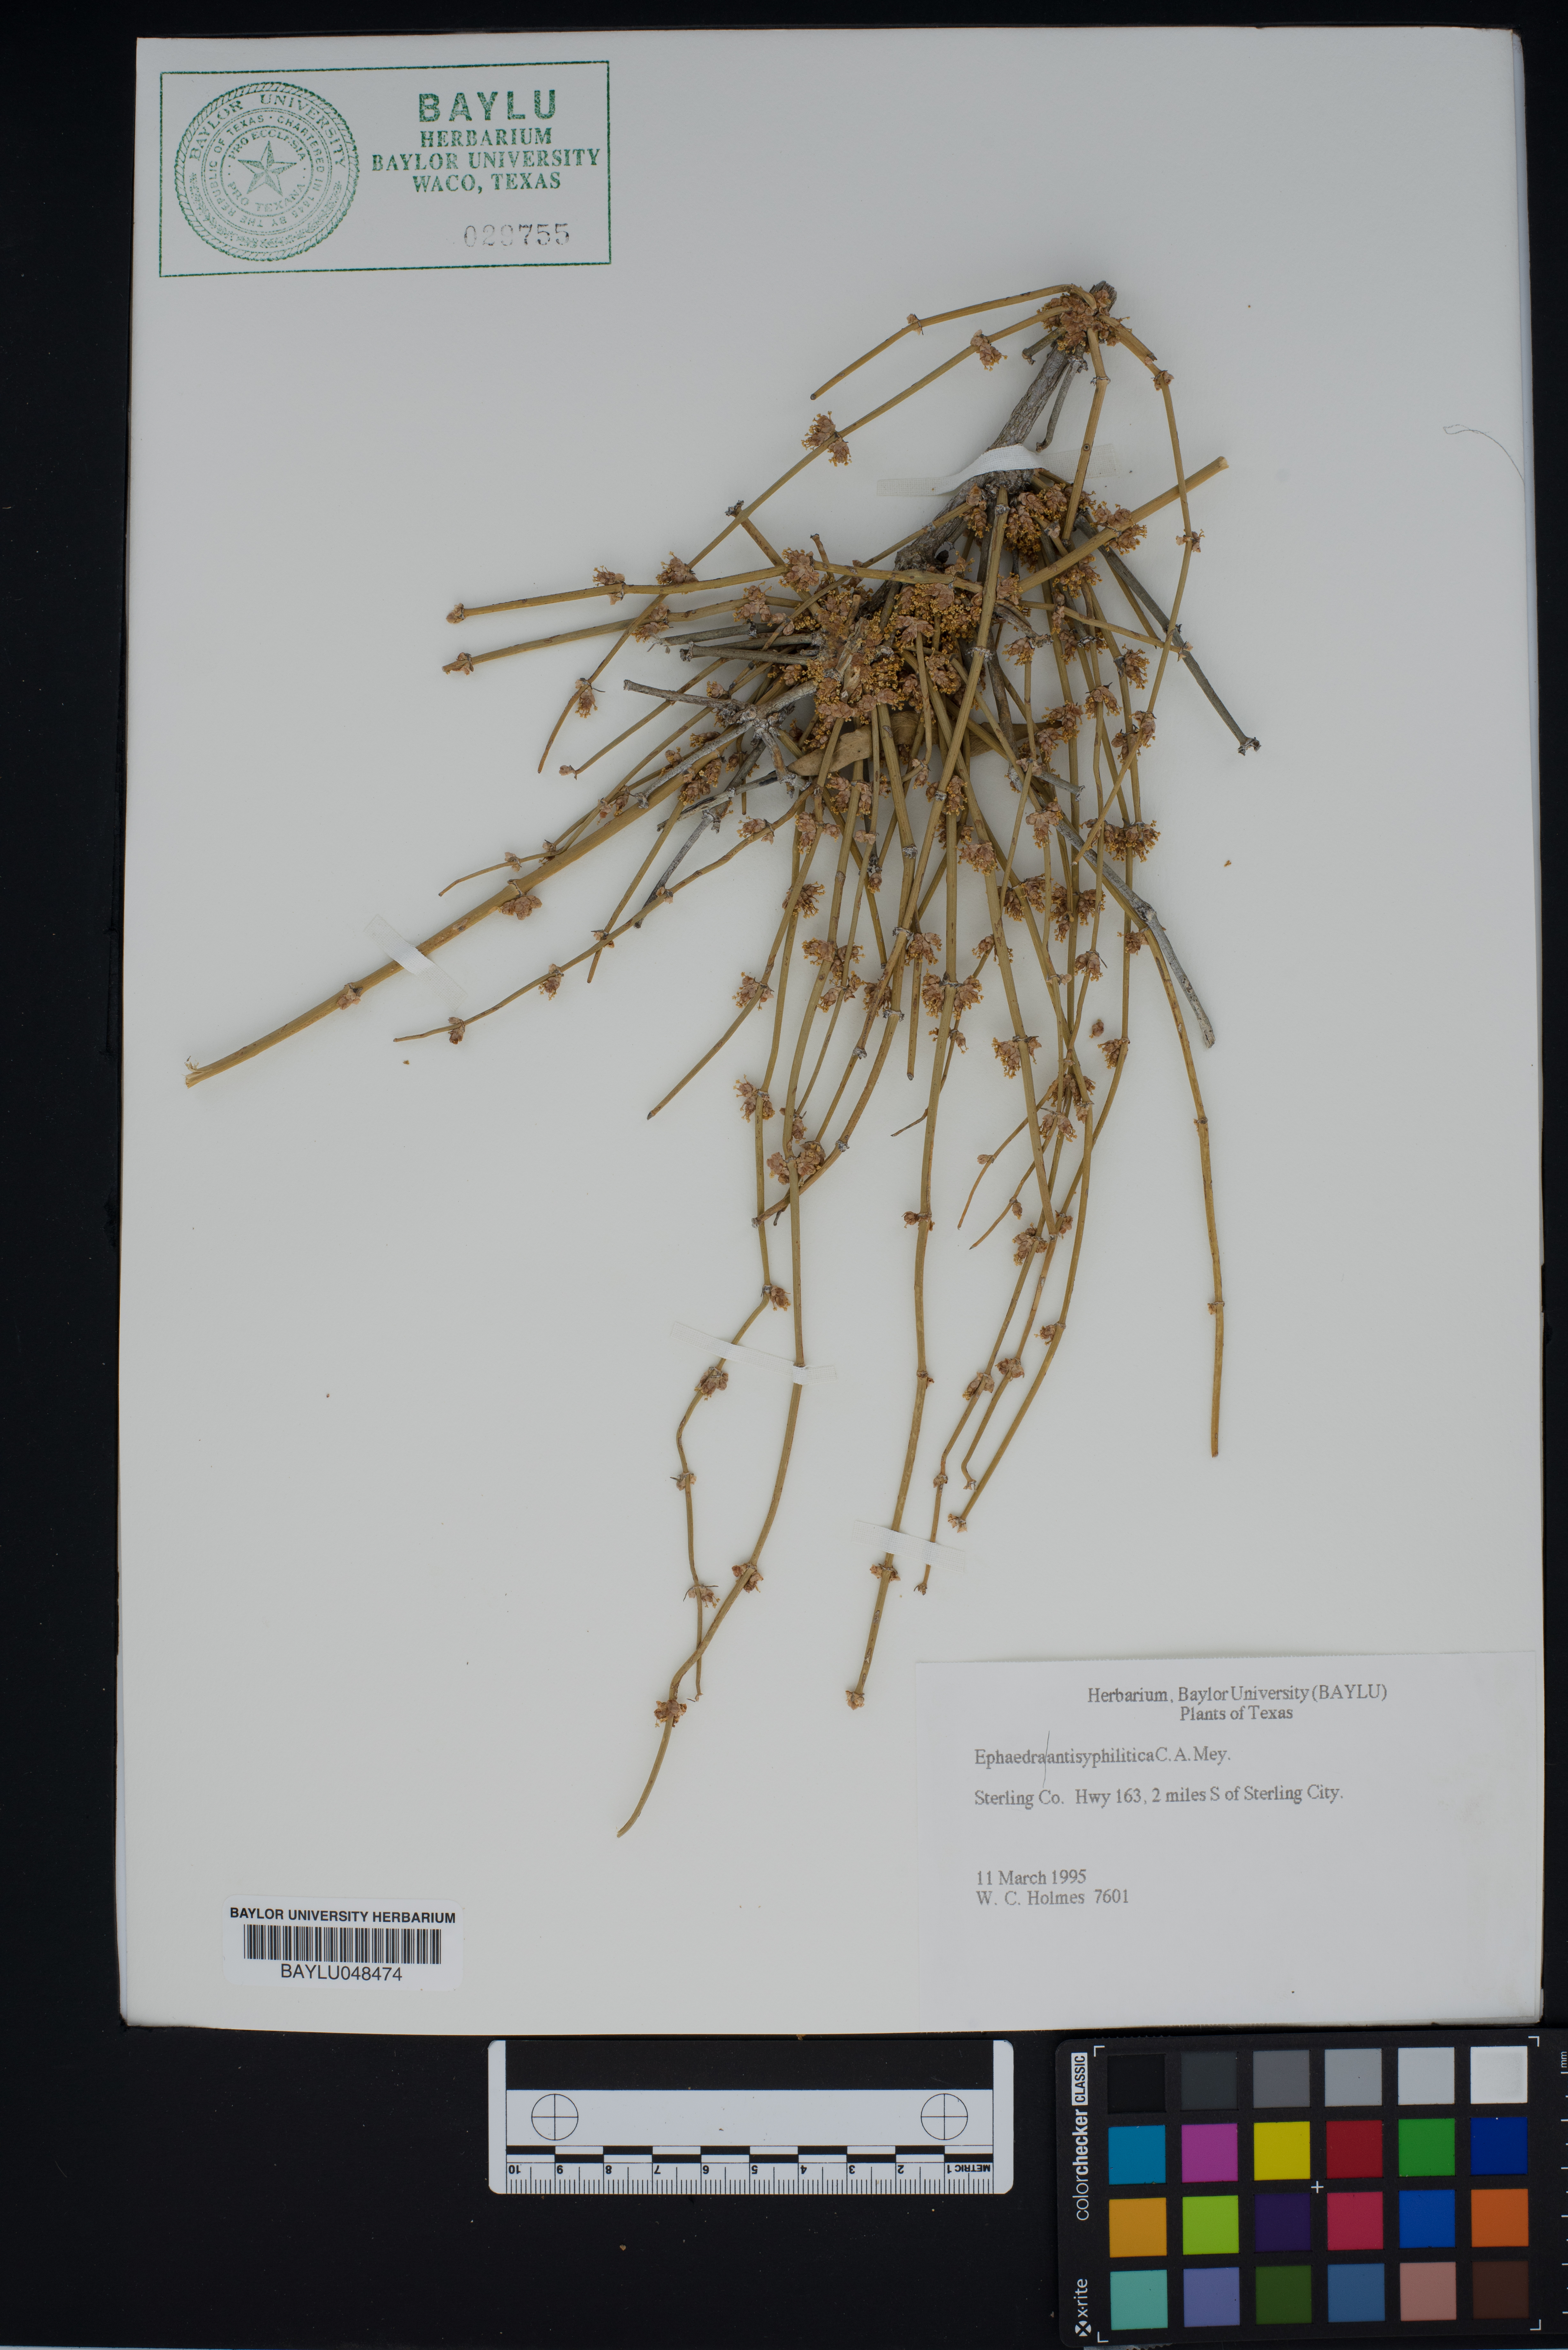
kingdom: Plantae
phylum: Tracheophyta
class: Gnetopsida
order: Ephedrales
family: Ephedraceae
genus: Ephedra
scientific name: Ephedra antisyphilitica
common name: Clipweed
